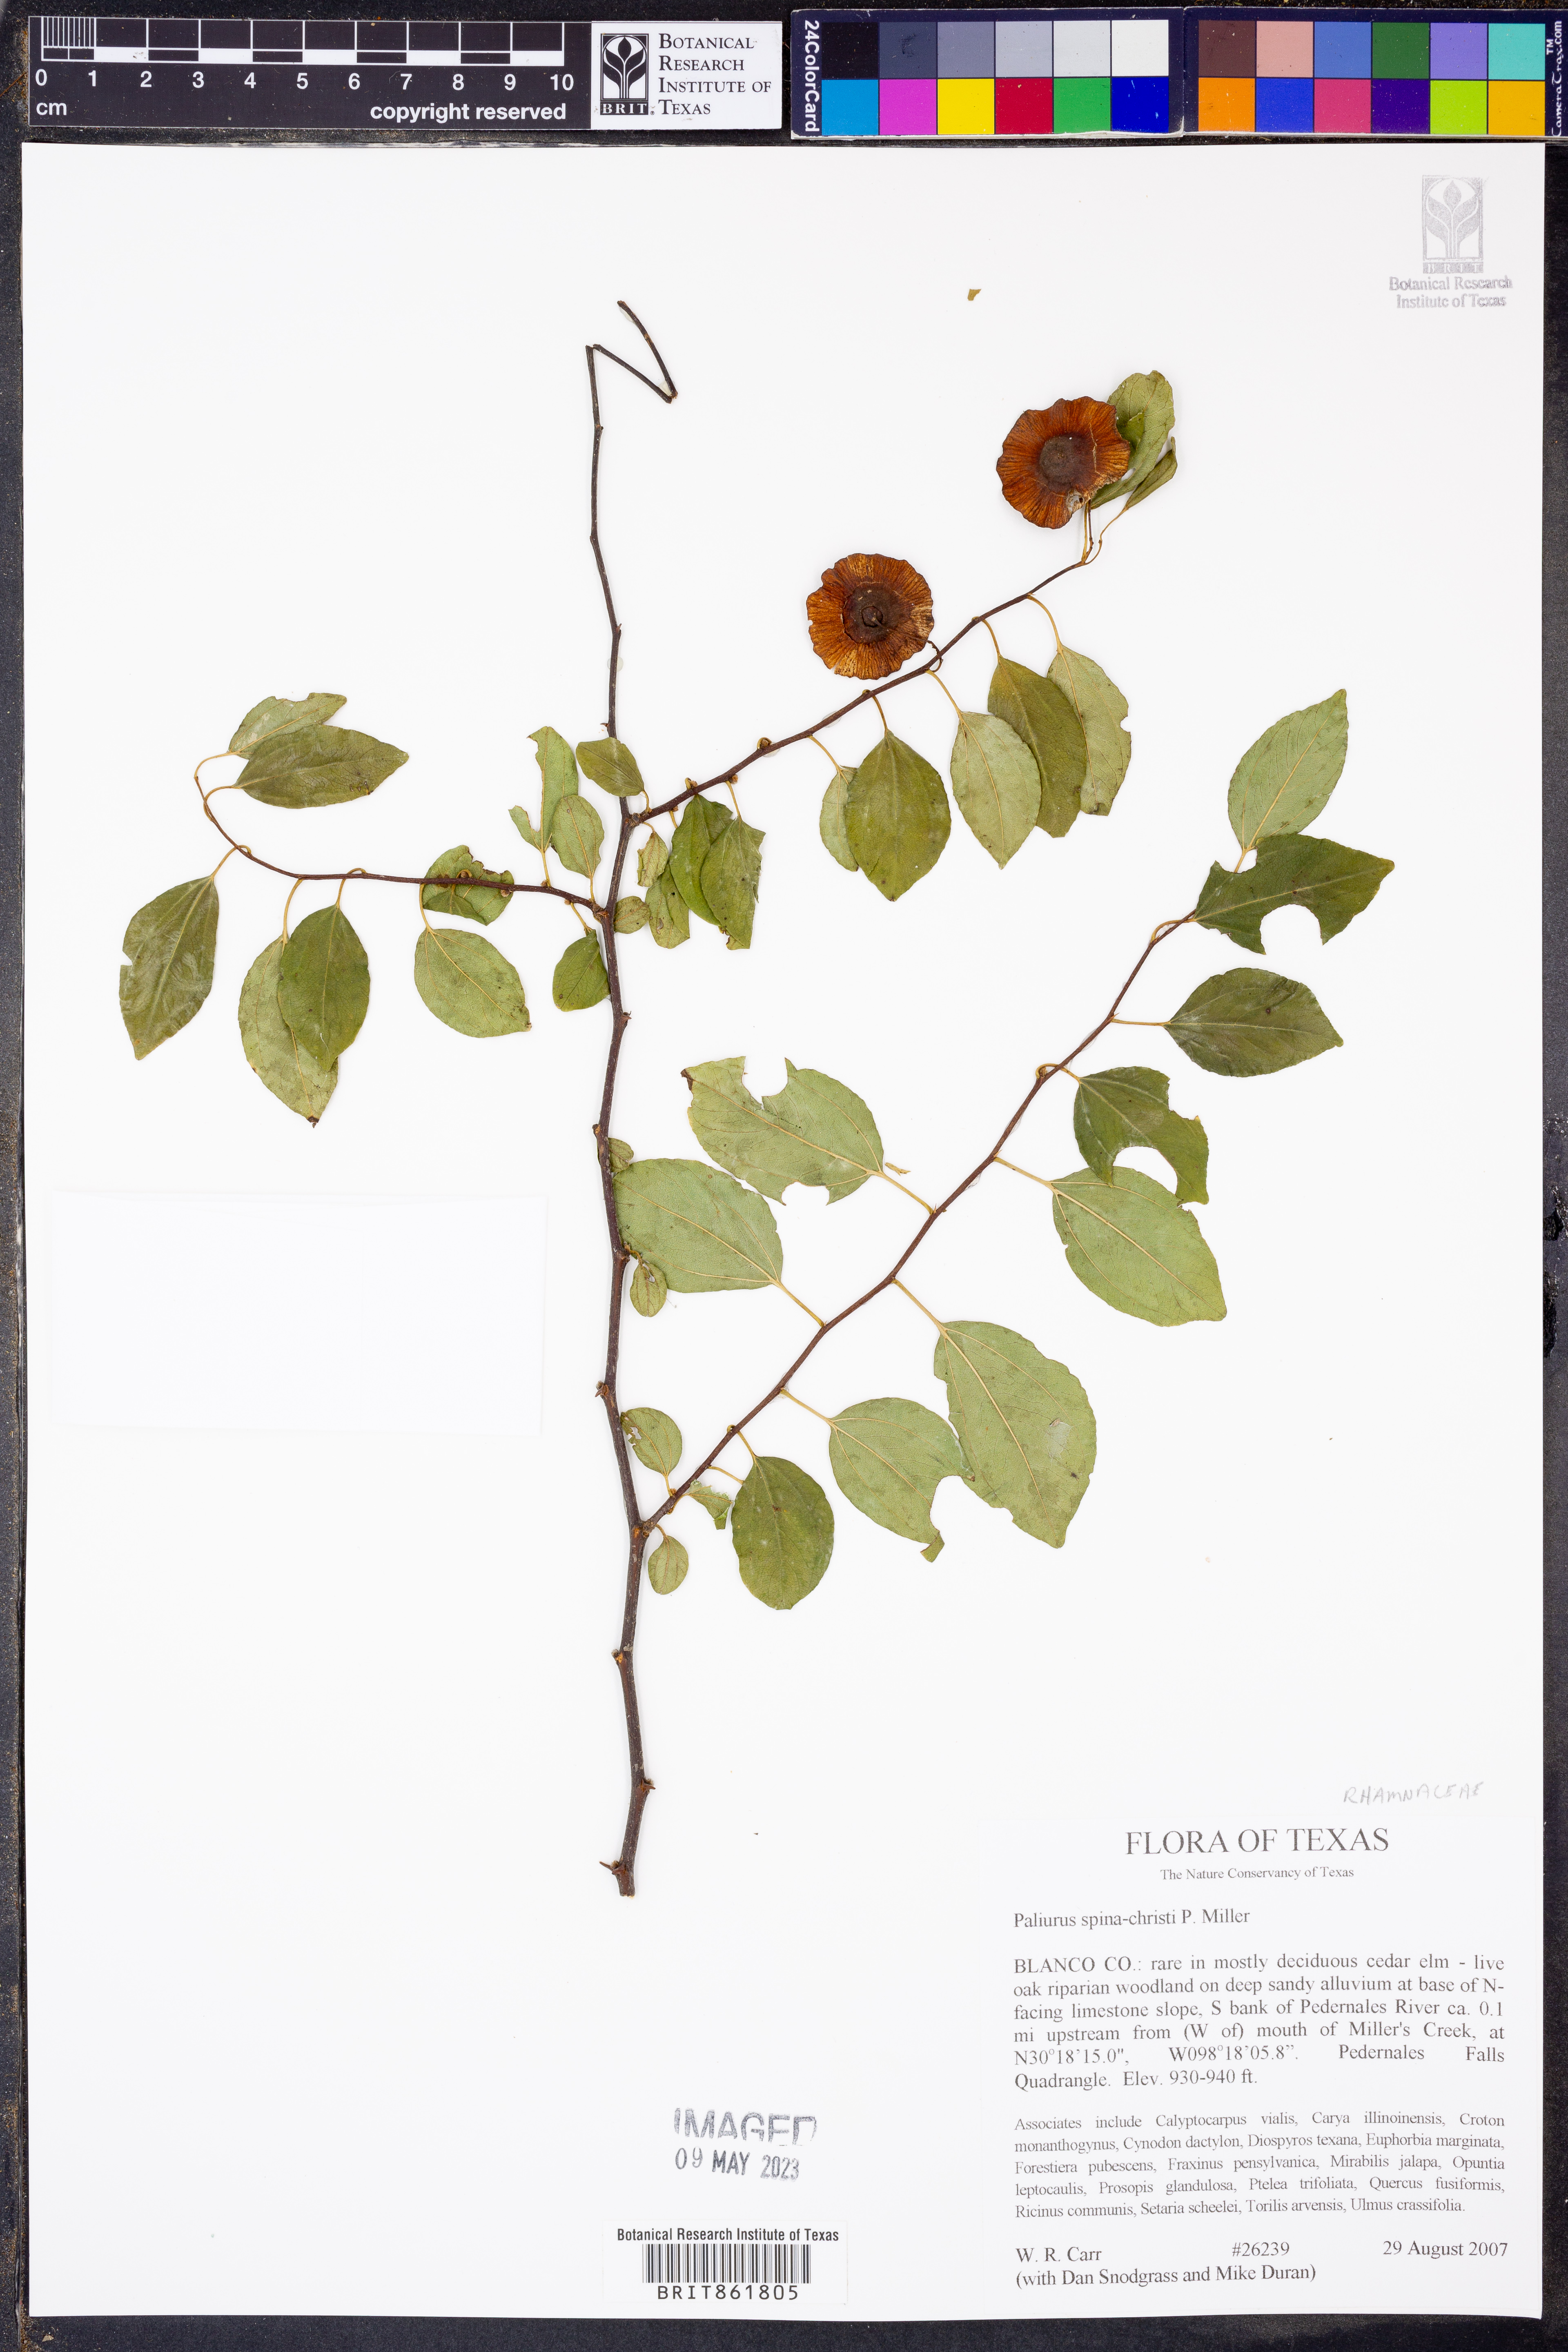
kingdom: Plantae
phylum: Tracheophyta
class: Magnoliopsida
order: Rosales
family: Rhamnaceae
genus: Paliurus
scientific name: Paliurus spina-christi
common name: Jeruselem thorn
